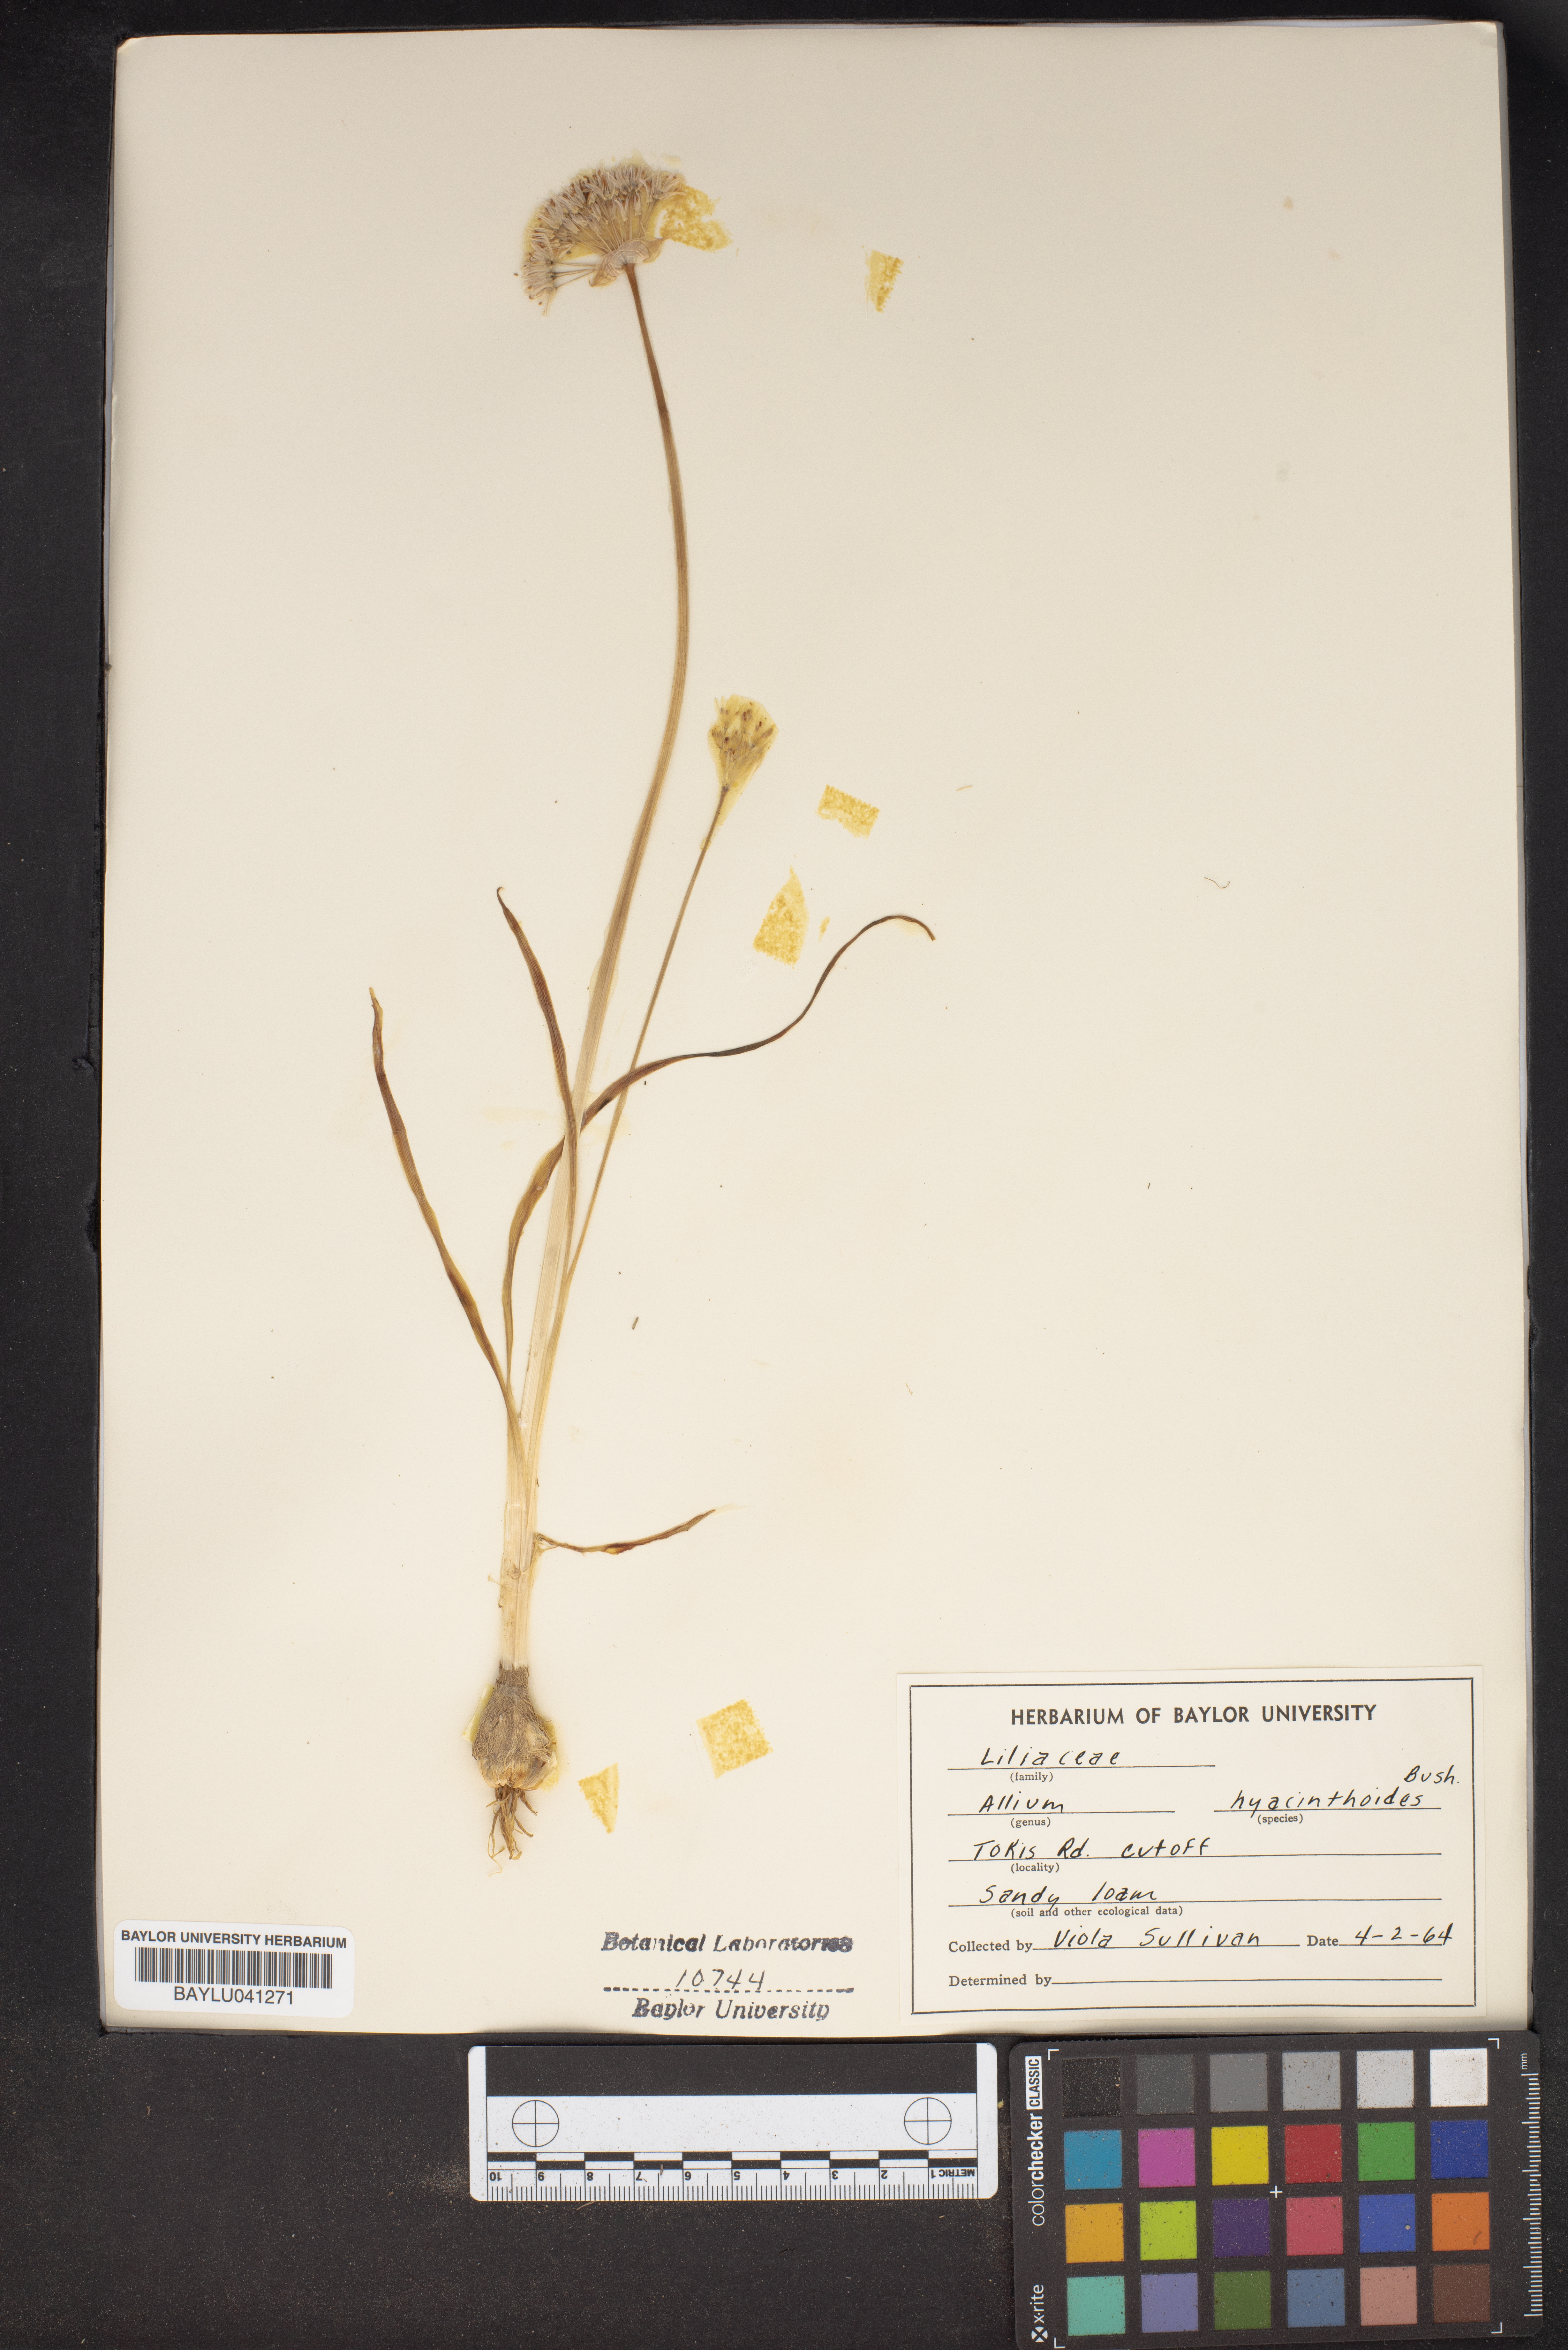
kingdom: Plantae
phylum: Tracheophyta
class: Liliopsida
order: Asparagales
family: Amaryllidaceae
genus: Allium
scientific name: Allium canadense
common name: Meadow garlic
